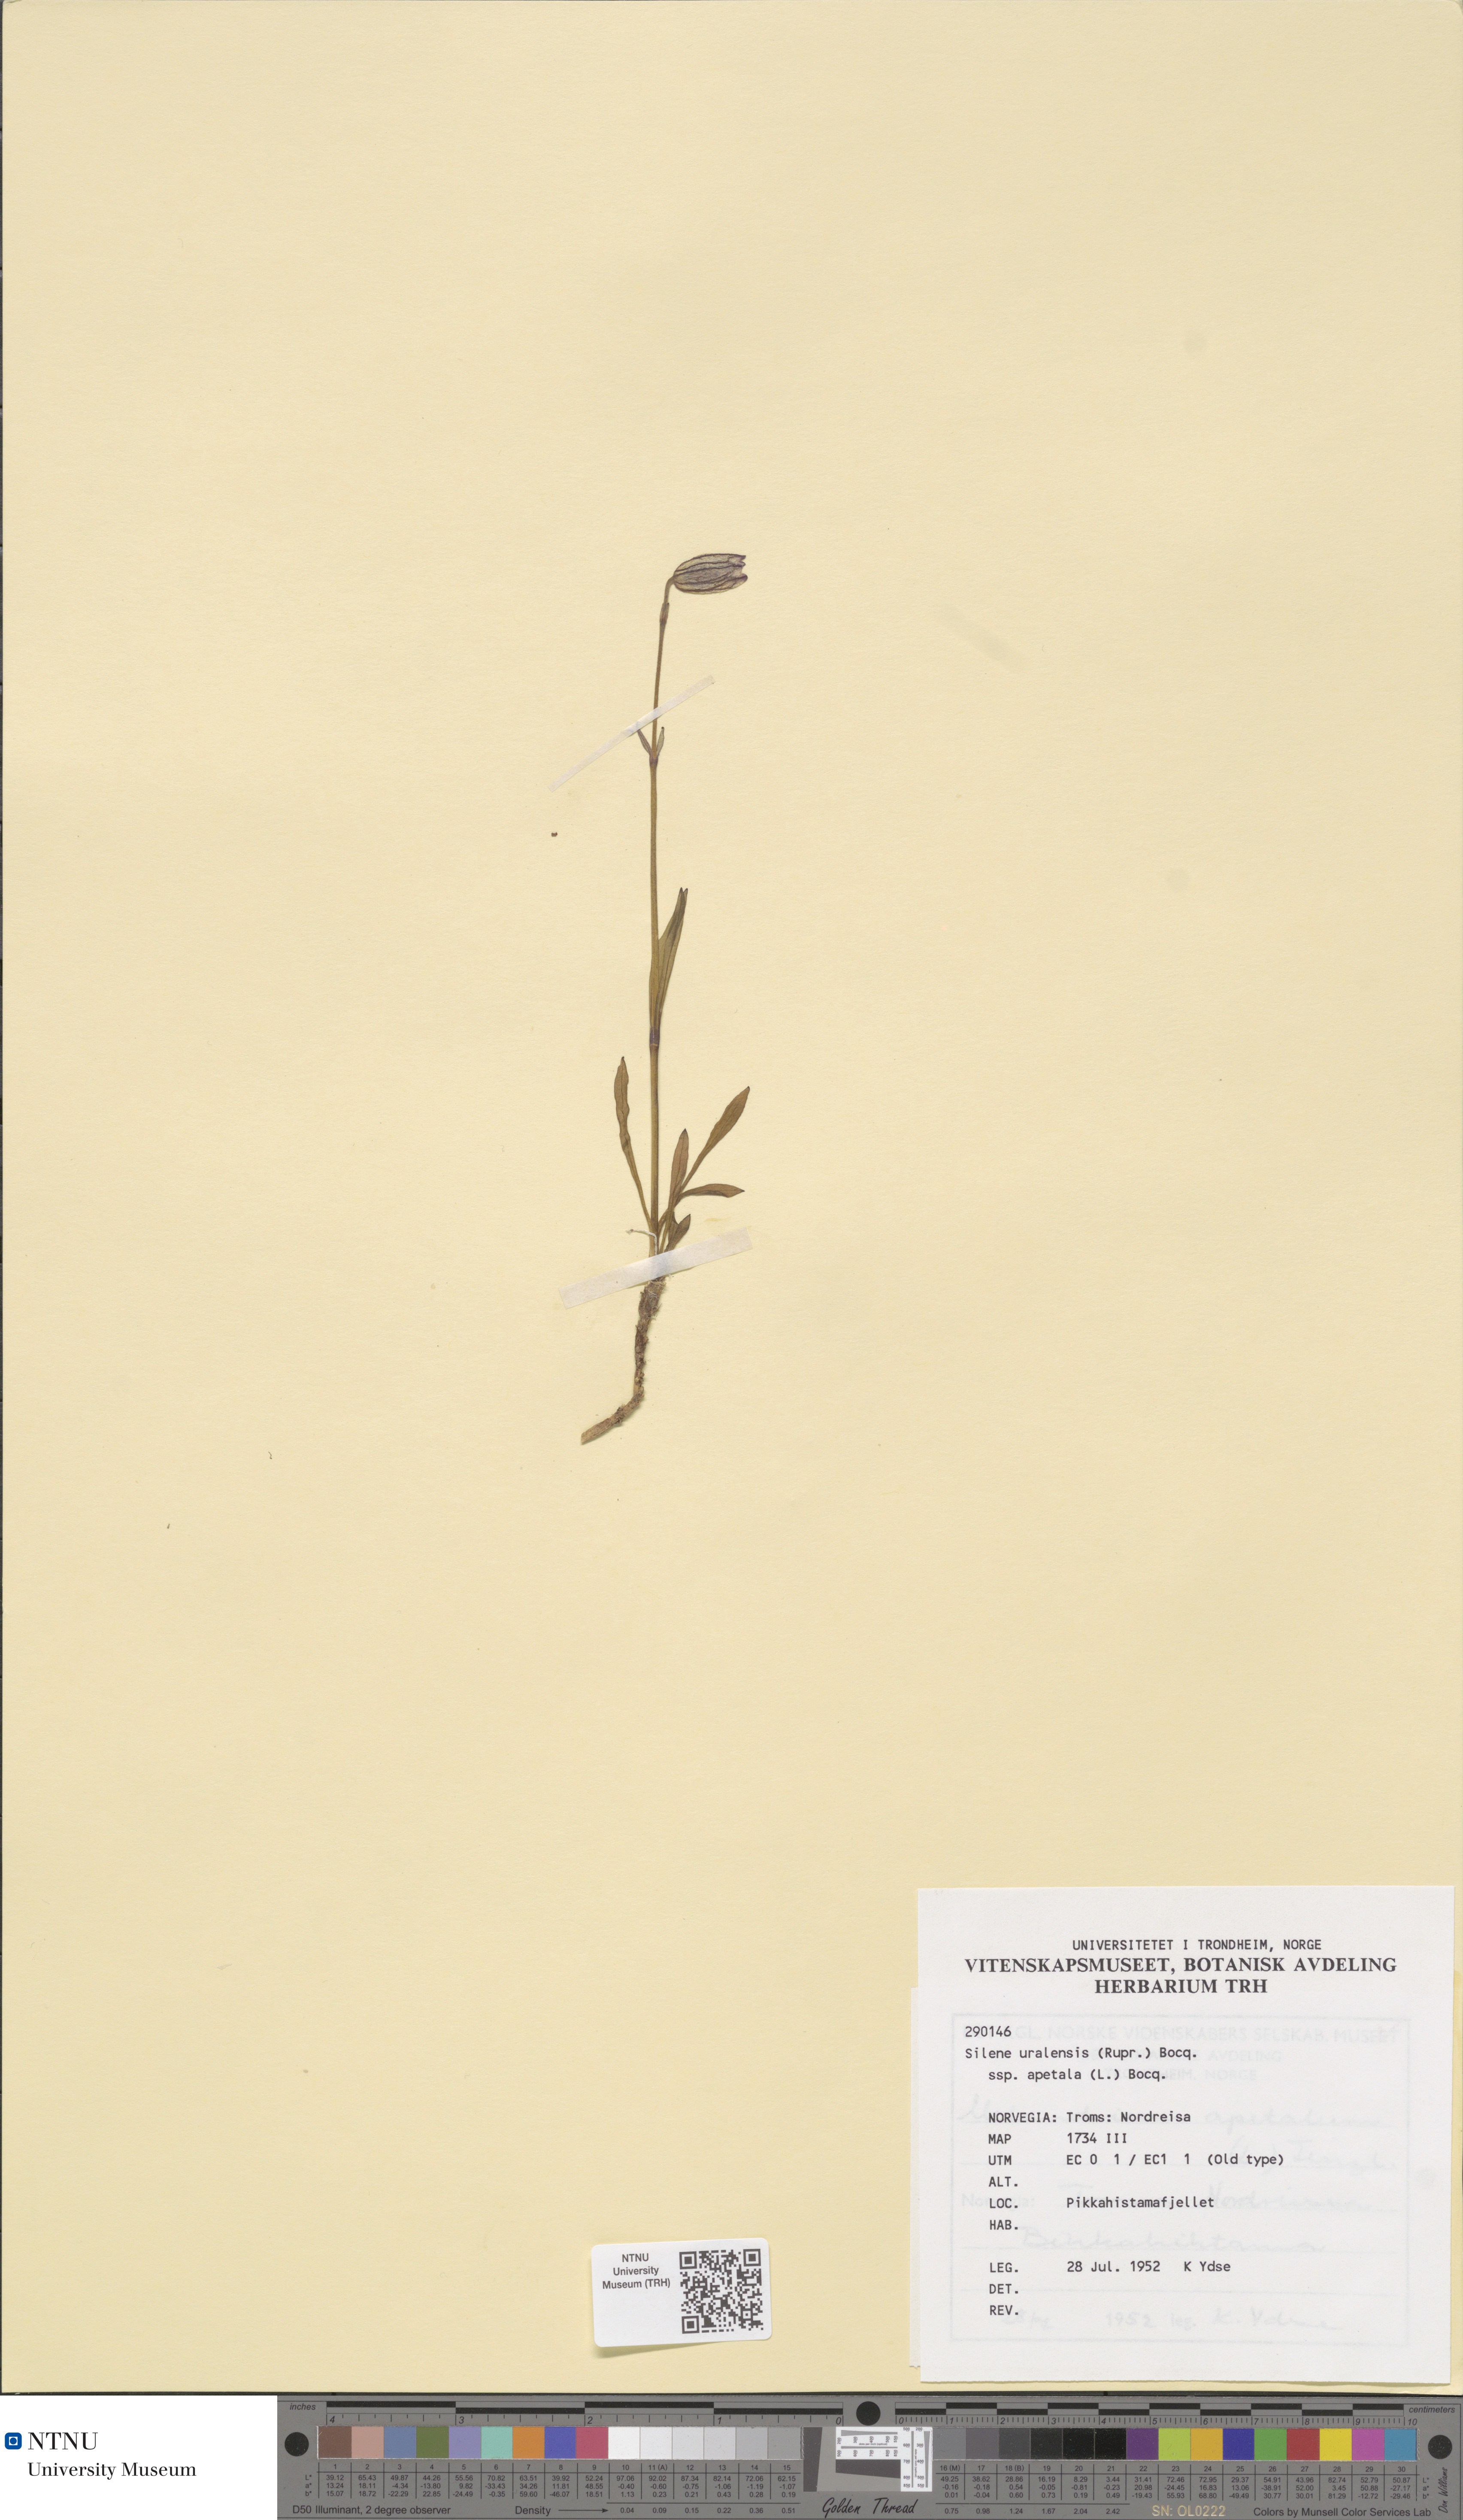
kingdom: Plantae
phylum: Tracheophyta
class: Magnoliopsida
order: Caryophyllales
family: Caryophyllaceae
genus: Silene
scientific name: Silene wahlbergella
